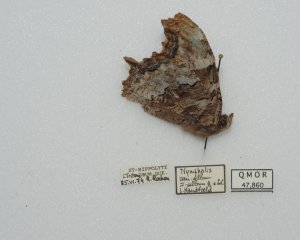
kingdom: Animalia
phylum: Arthropoda
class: Insecta
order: Lepidoptera
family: Nymphalidae
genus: Polygonia
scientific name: Polygonia vaualbum
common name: Compton Tortoiseshell
